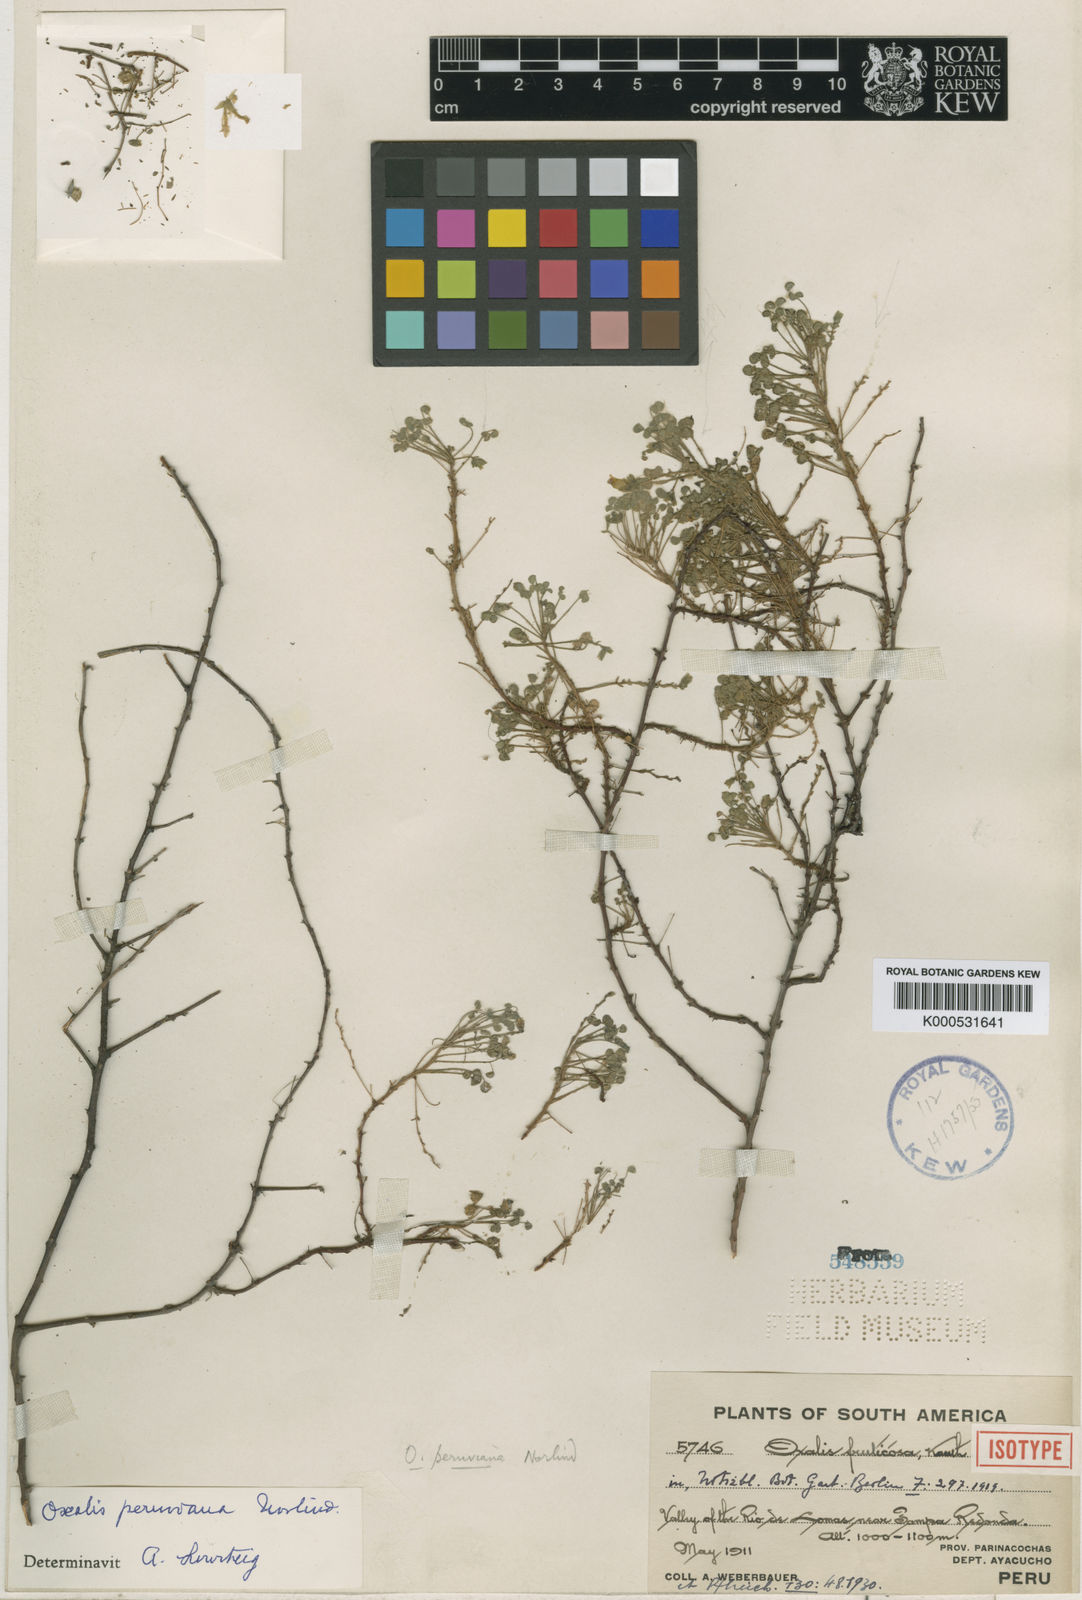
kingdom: Plantae
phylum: Tracheophyta
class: Magnoliopsida
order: Oxalidales
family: Oxalidaceae
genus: Oxalis
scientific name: Oxalis peruviana
